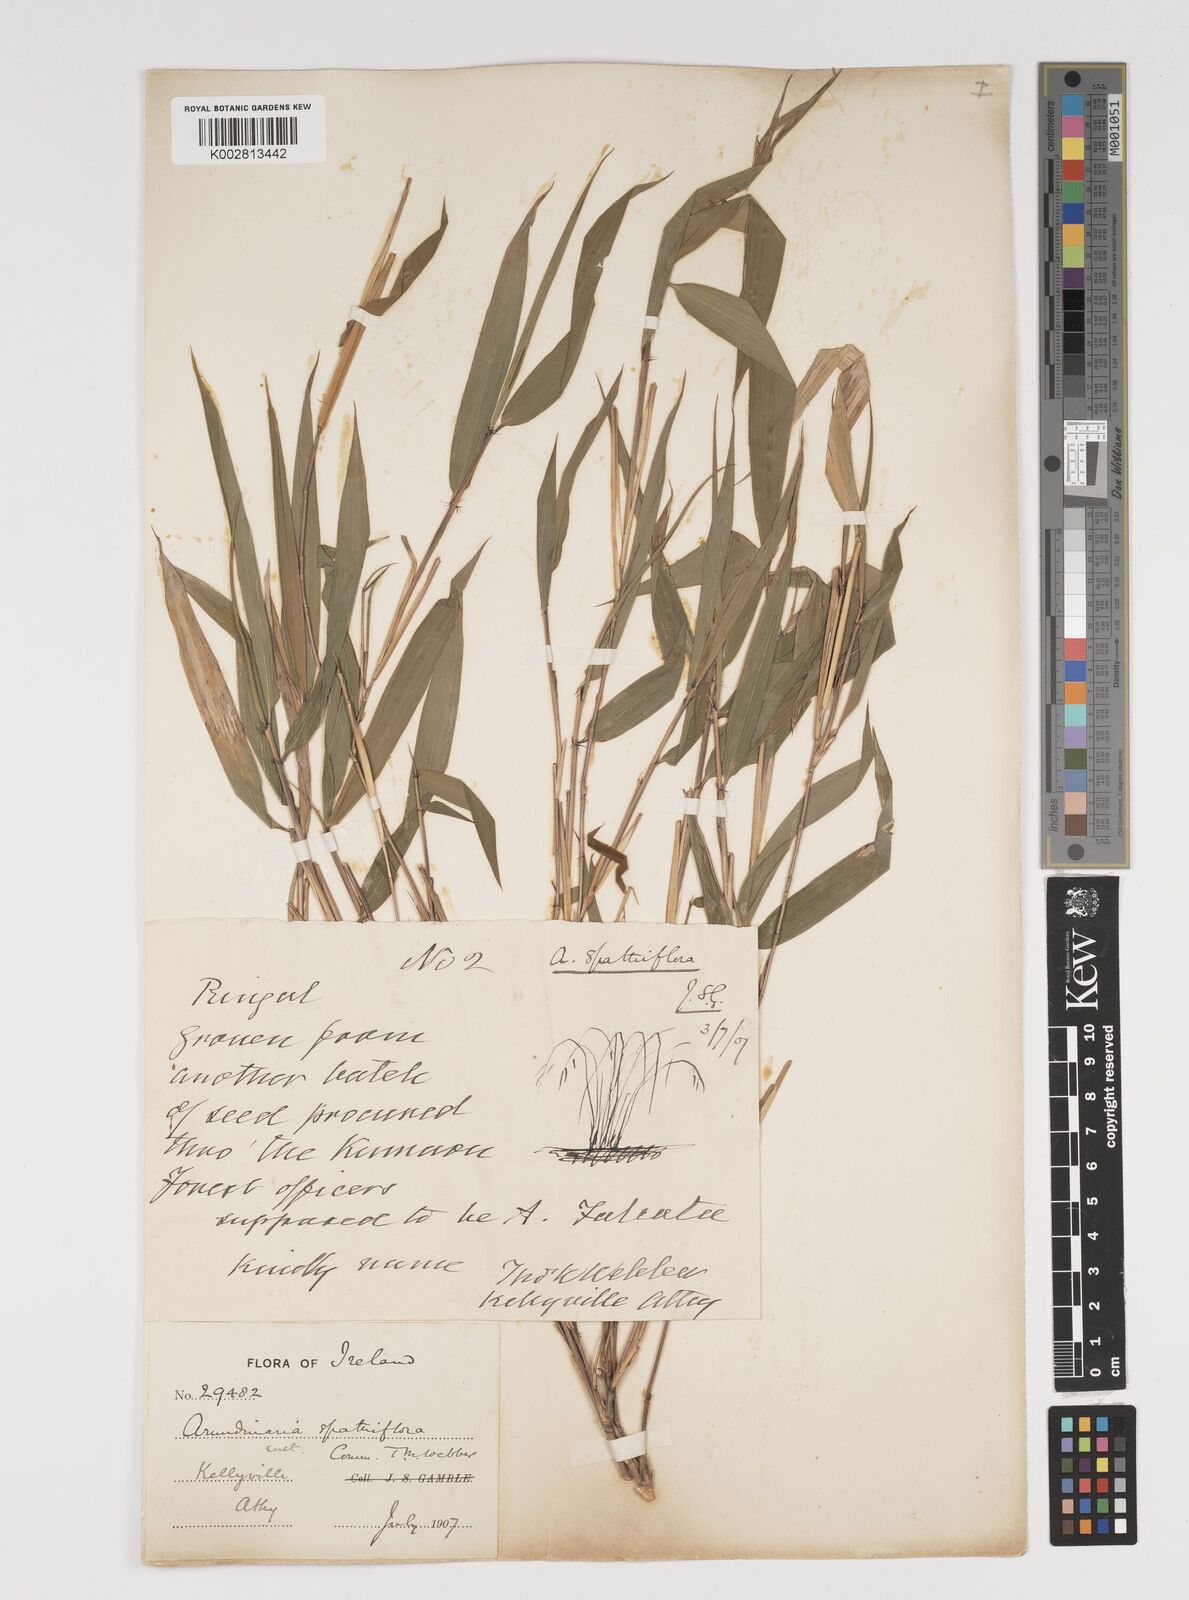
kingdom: Plantae
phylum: Tracheophyta
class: Liliopsida
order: Poales
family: Poaceae
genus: Thamnocalamus
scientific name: Thamnocalamus spathiflorus
